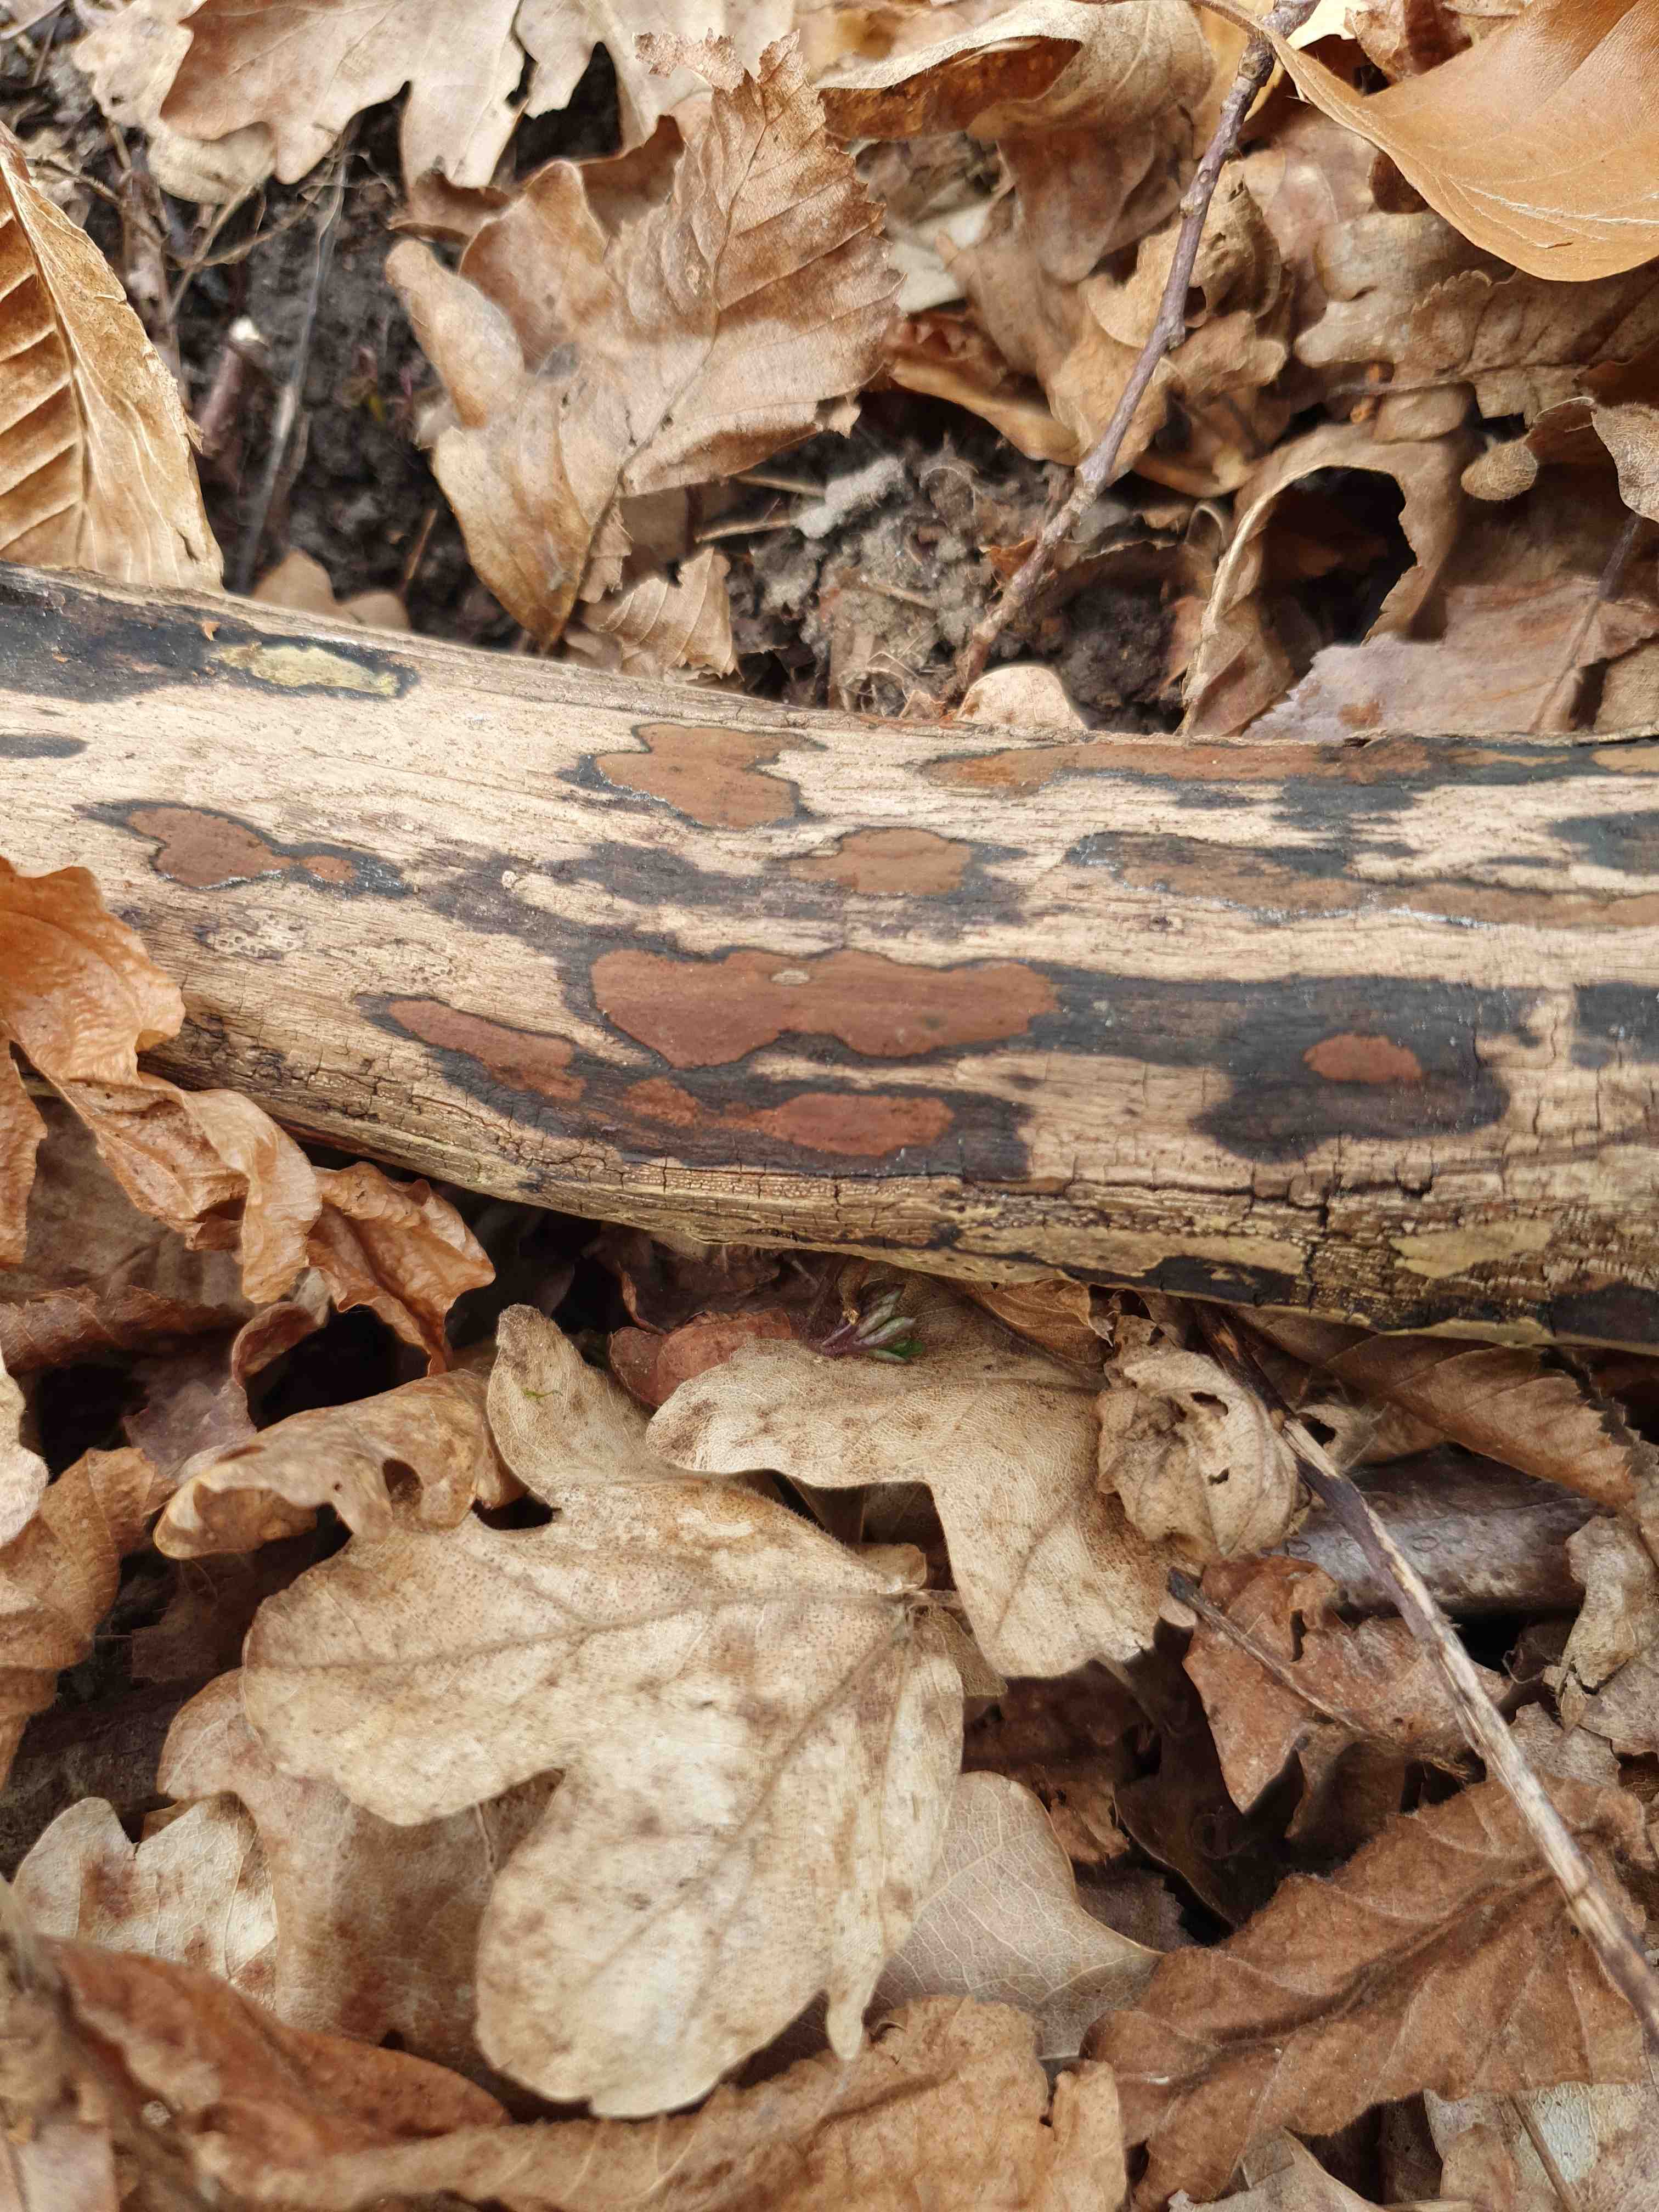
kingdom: Fungi
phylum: Ascomycota
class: Sordariomycetes
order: Xylariales
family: Hypoxylaceae
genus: Hypoxylon
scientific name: Hypoxylon petriniae
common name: nedsænket kulbær
